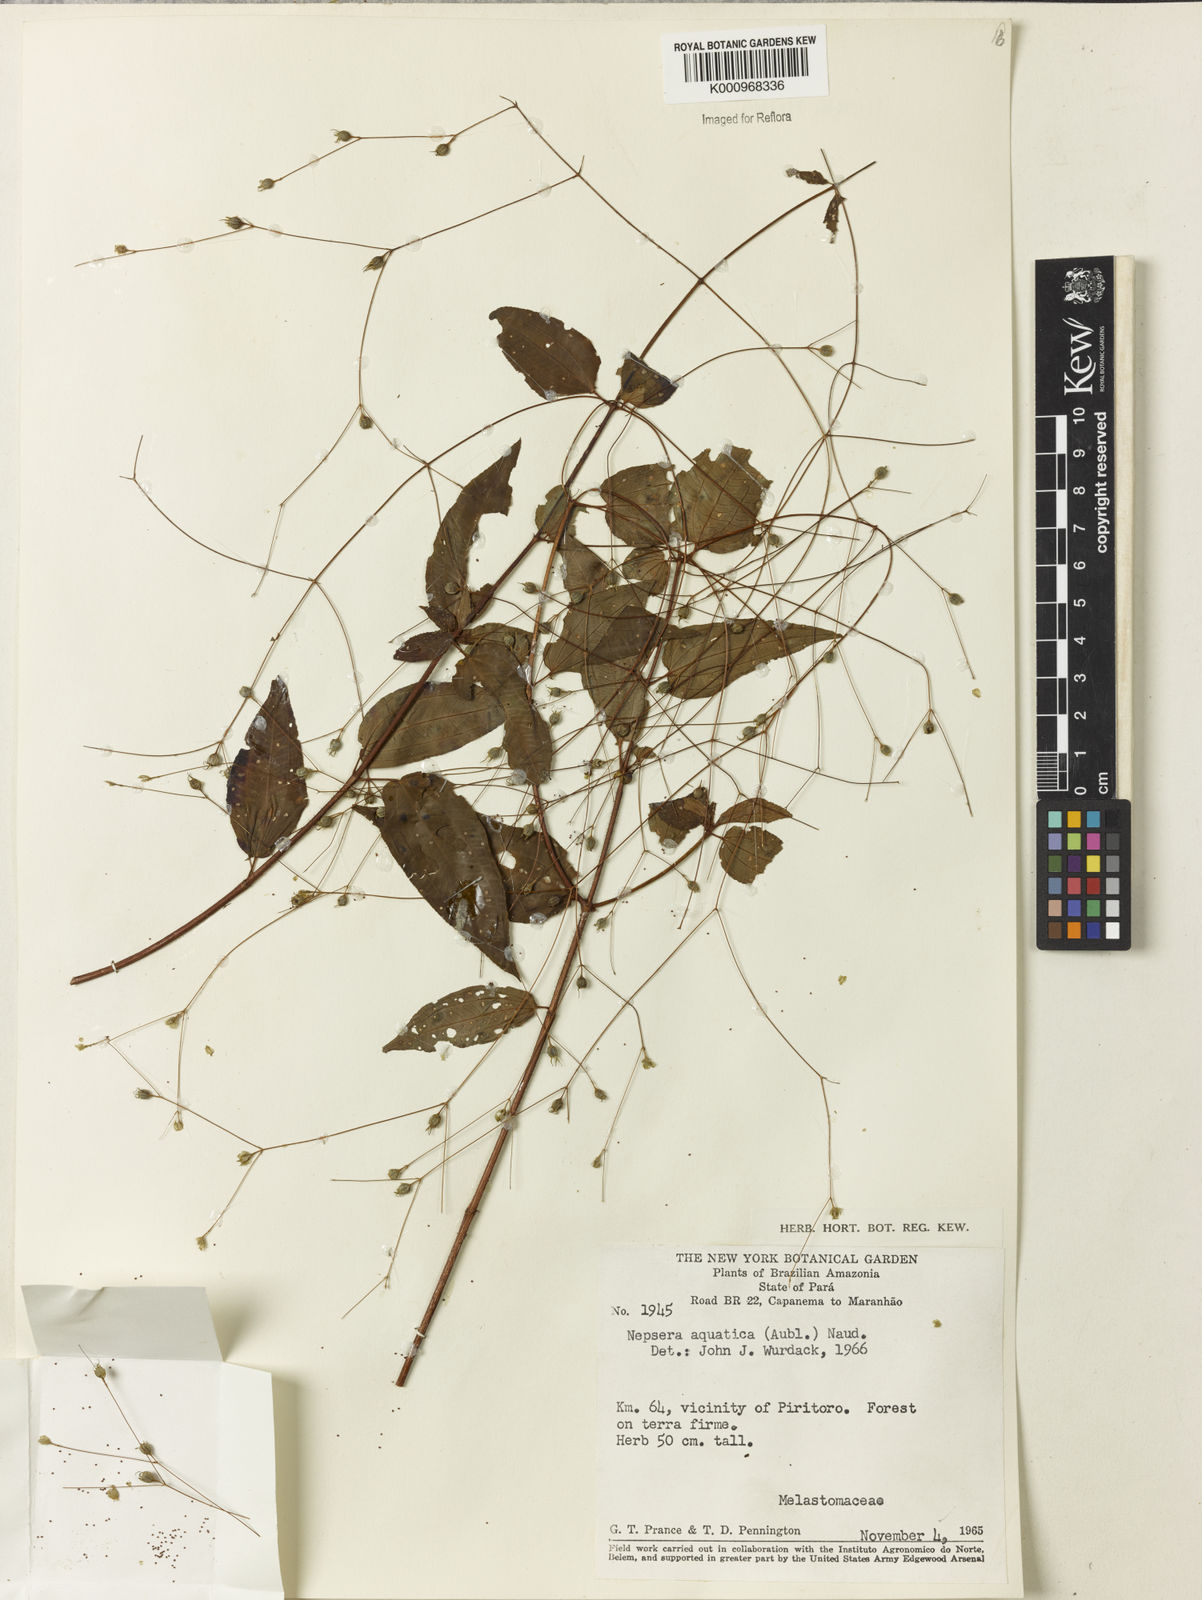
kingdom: Plantae
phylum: Tracheophyta
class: Magnoliopsida
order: Myrtales
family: Melastomataceae
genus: Nepsera
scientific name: Nepsera aquatica
